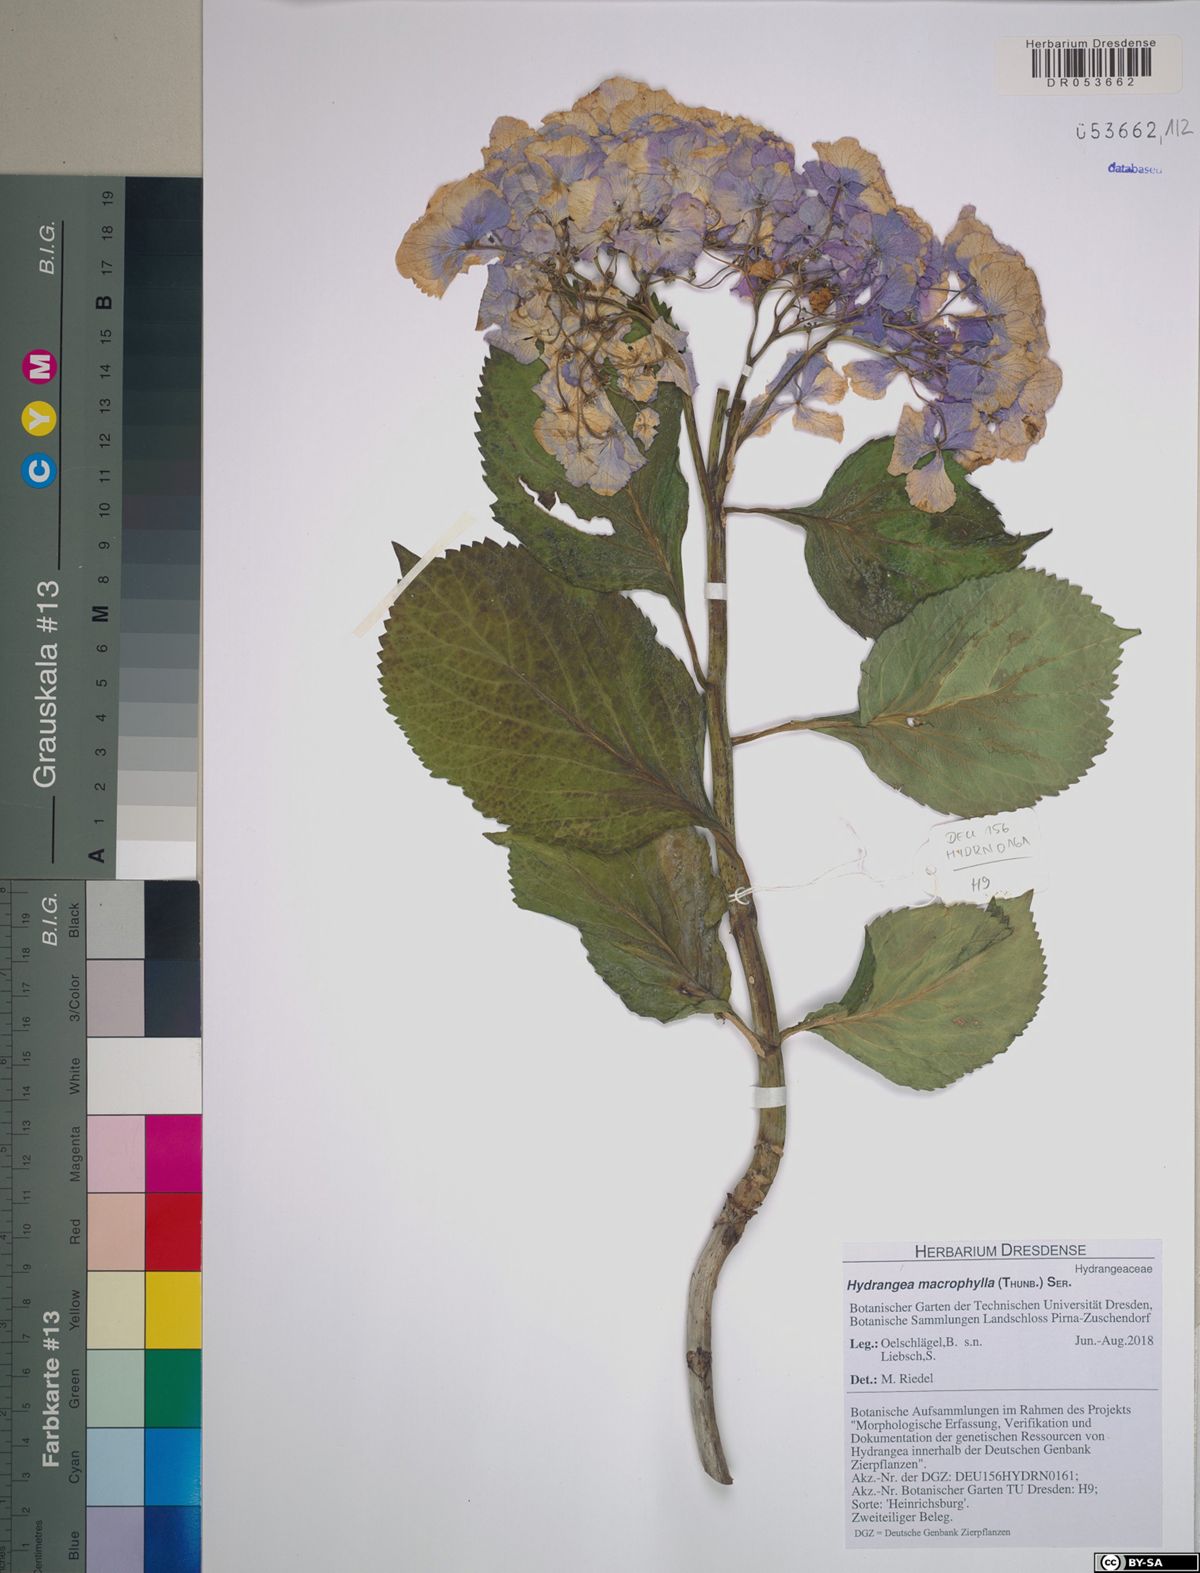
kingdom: Plantae
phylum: Tracheophyta
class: Magnoliopsida
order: Cornales
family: Hydrangeaceae
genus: Hydrangea
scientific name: Hydrangea macrophylla
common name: Hydrangea
